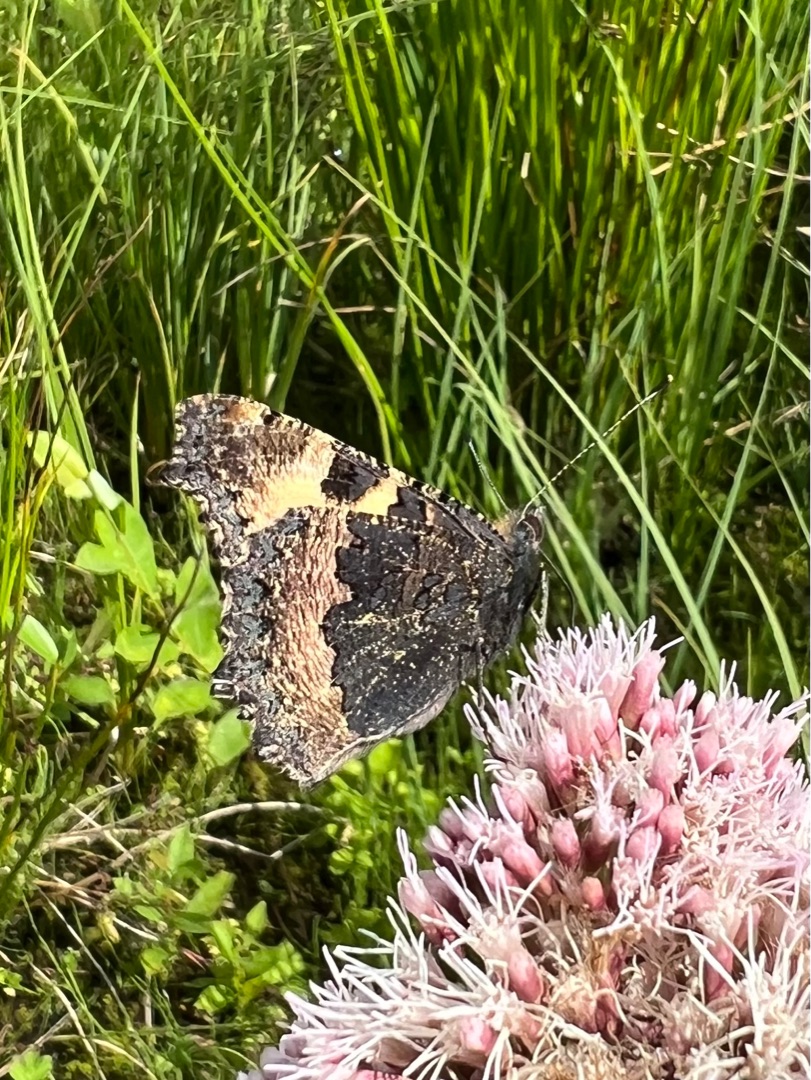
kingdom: Animalia
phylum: Arthropoda
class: Insecta
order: Lepidoptera
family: Nymphalidae
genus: Aglais
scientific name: Aglais urticae
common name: Nældens takvinge
